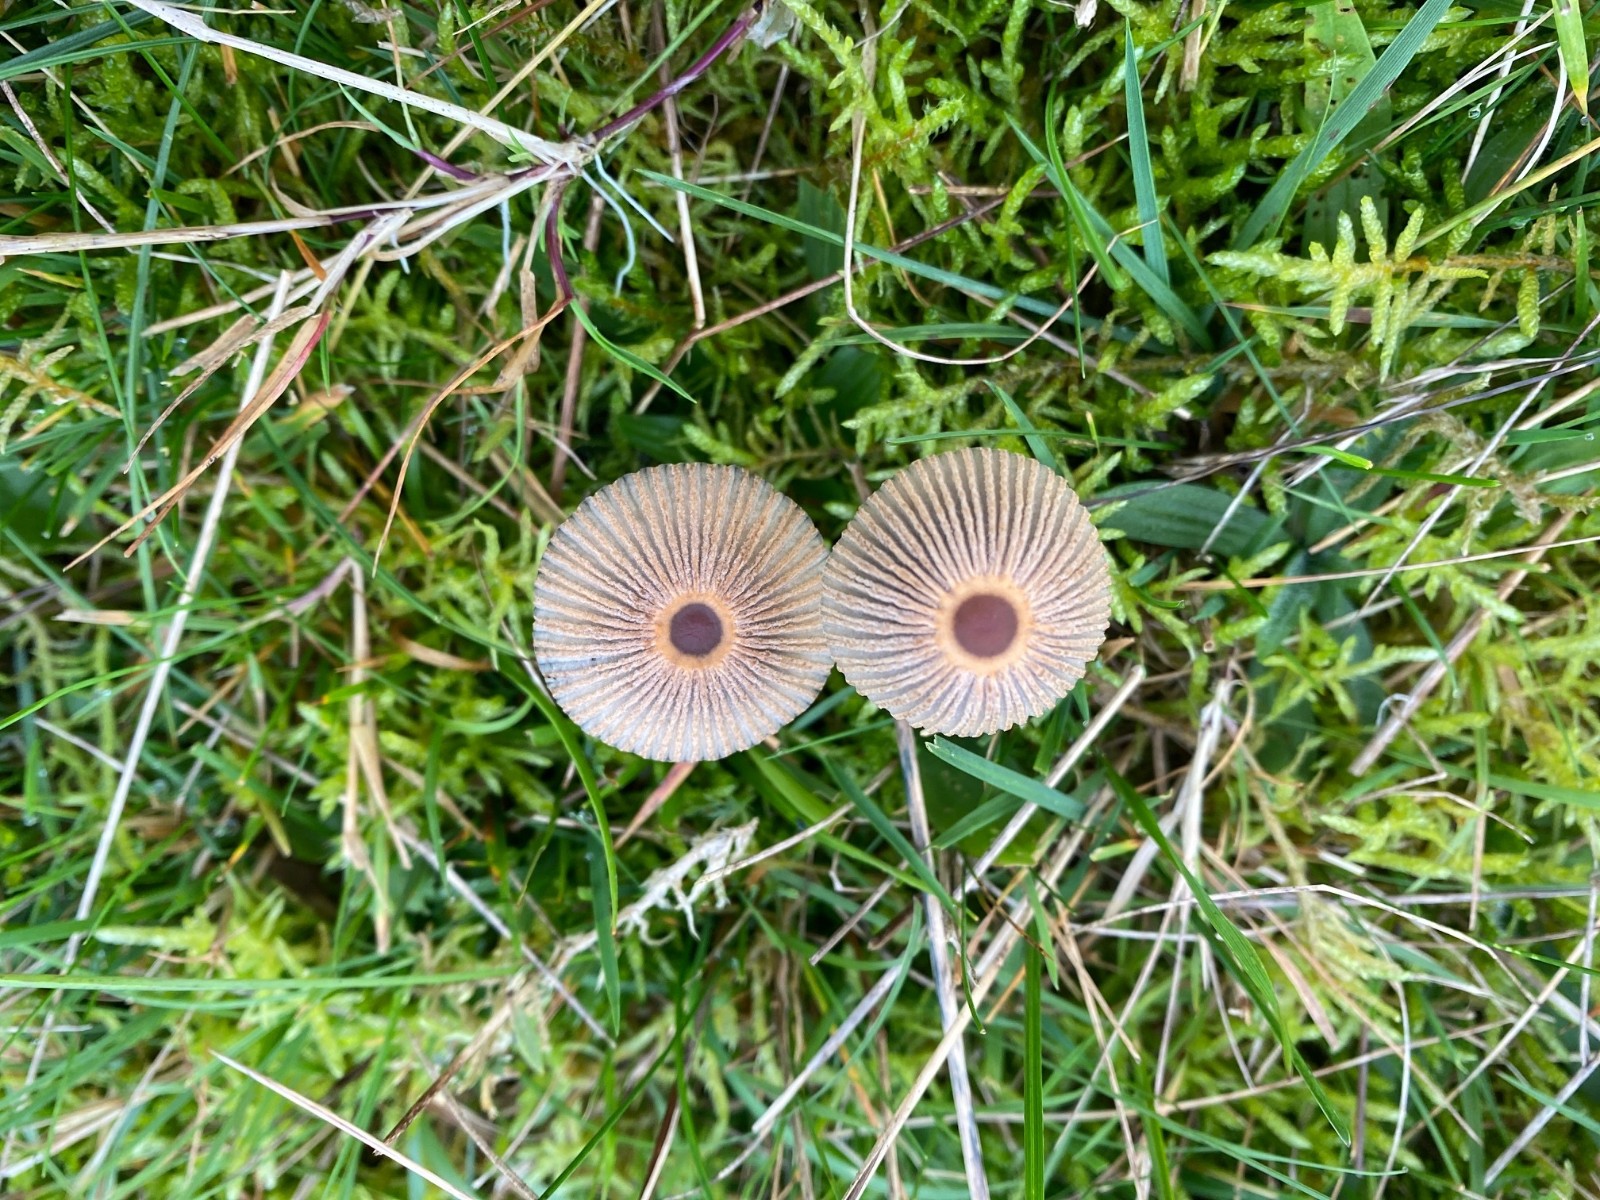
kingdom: Fungi
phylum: Basidiomycota
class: Agaricomycetes
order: Agaricales
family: Psathyrellaceae
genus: Parasola
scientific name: Parasola
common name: hjulhat
